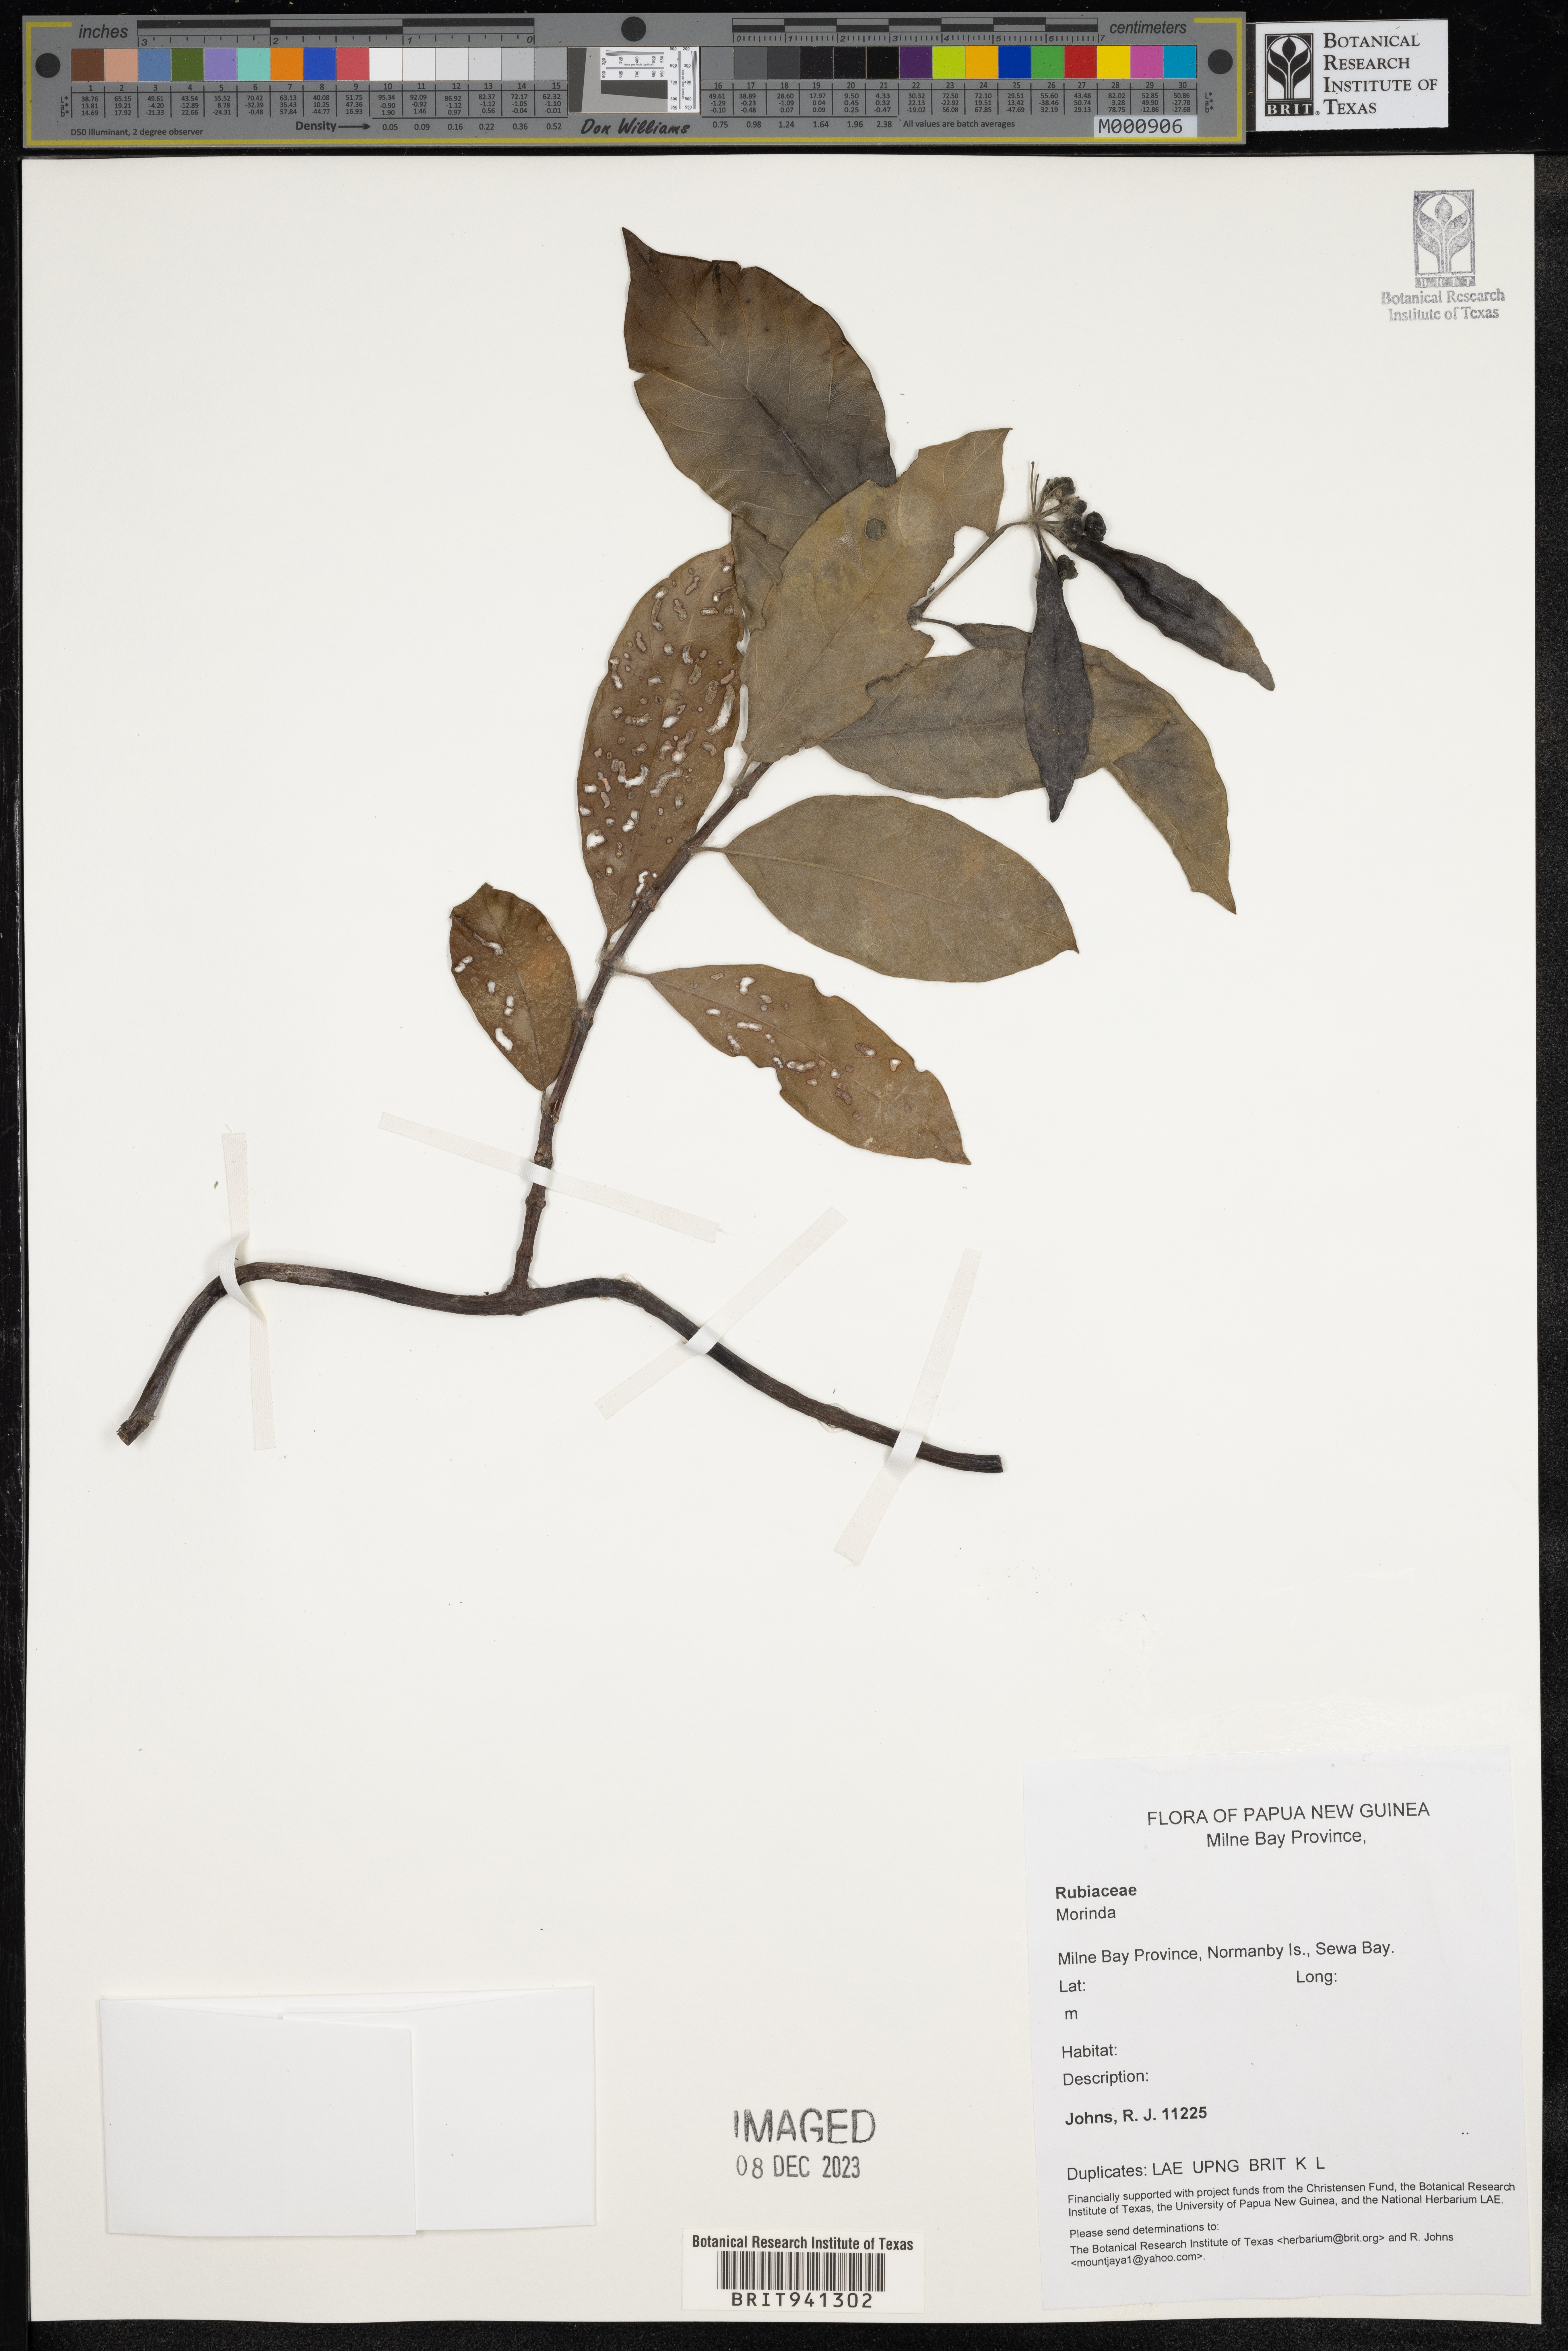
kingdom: Plantae
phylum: Tracheophyta
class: Magnoliopsida
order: Gentianales
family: Rubiaceae
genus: Morinda
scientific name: Morinda
